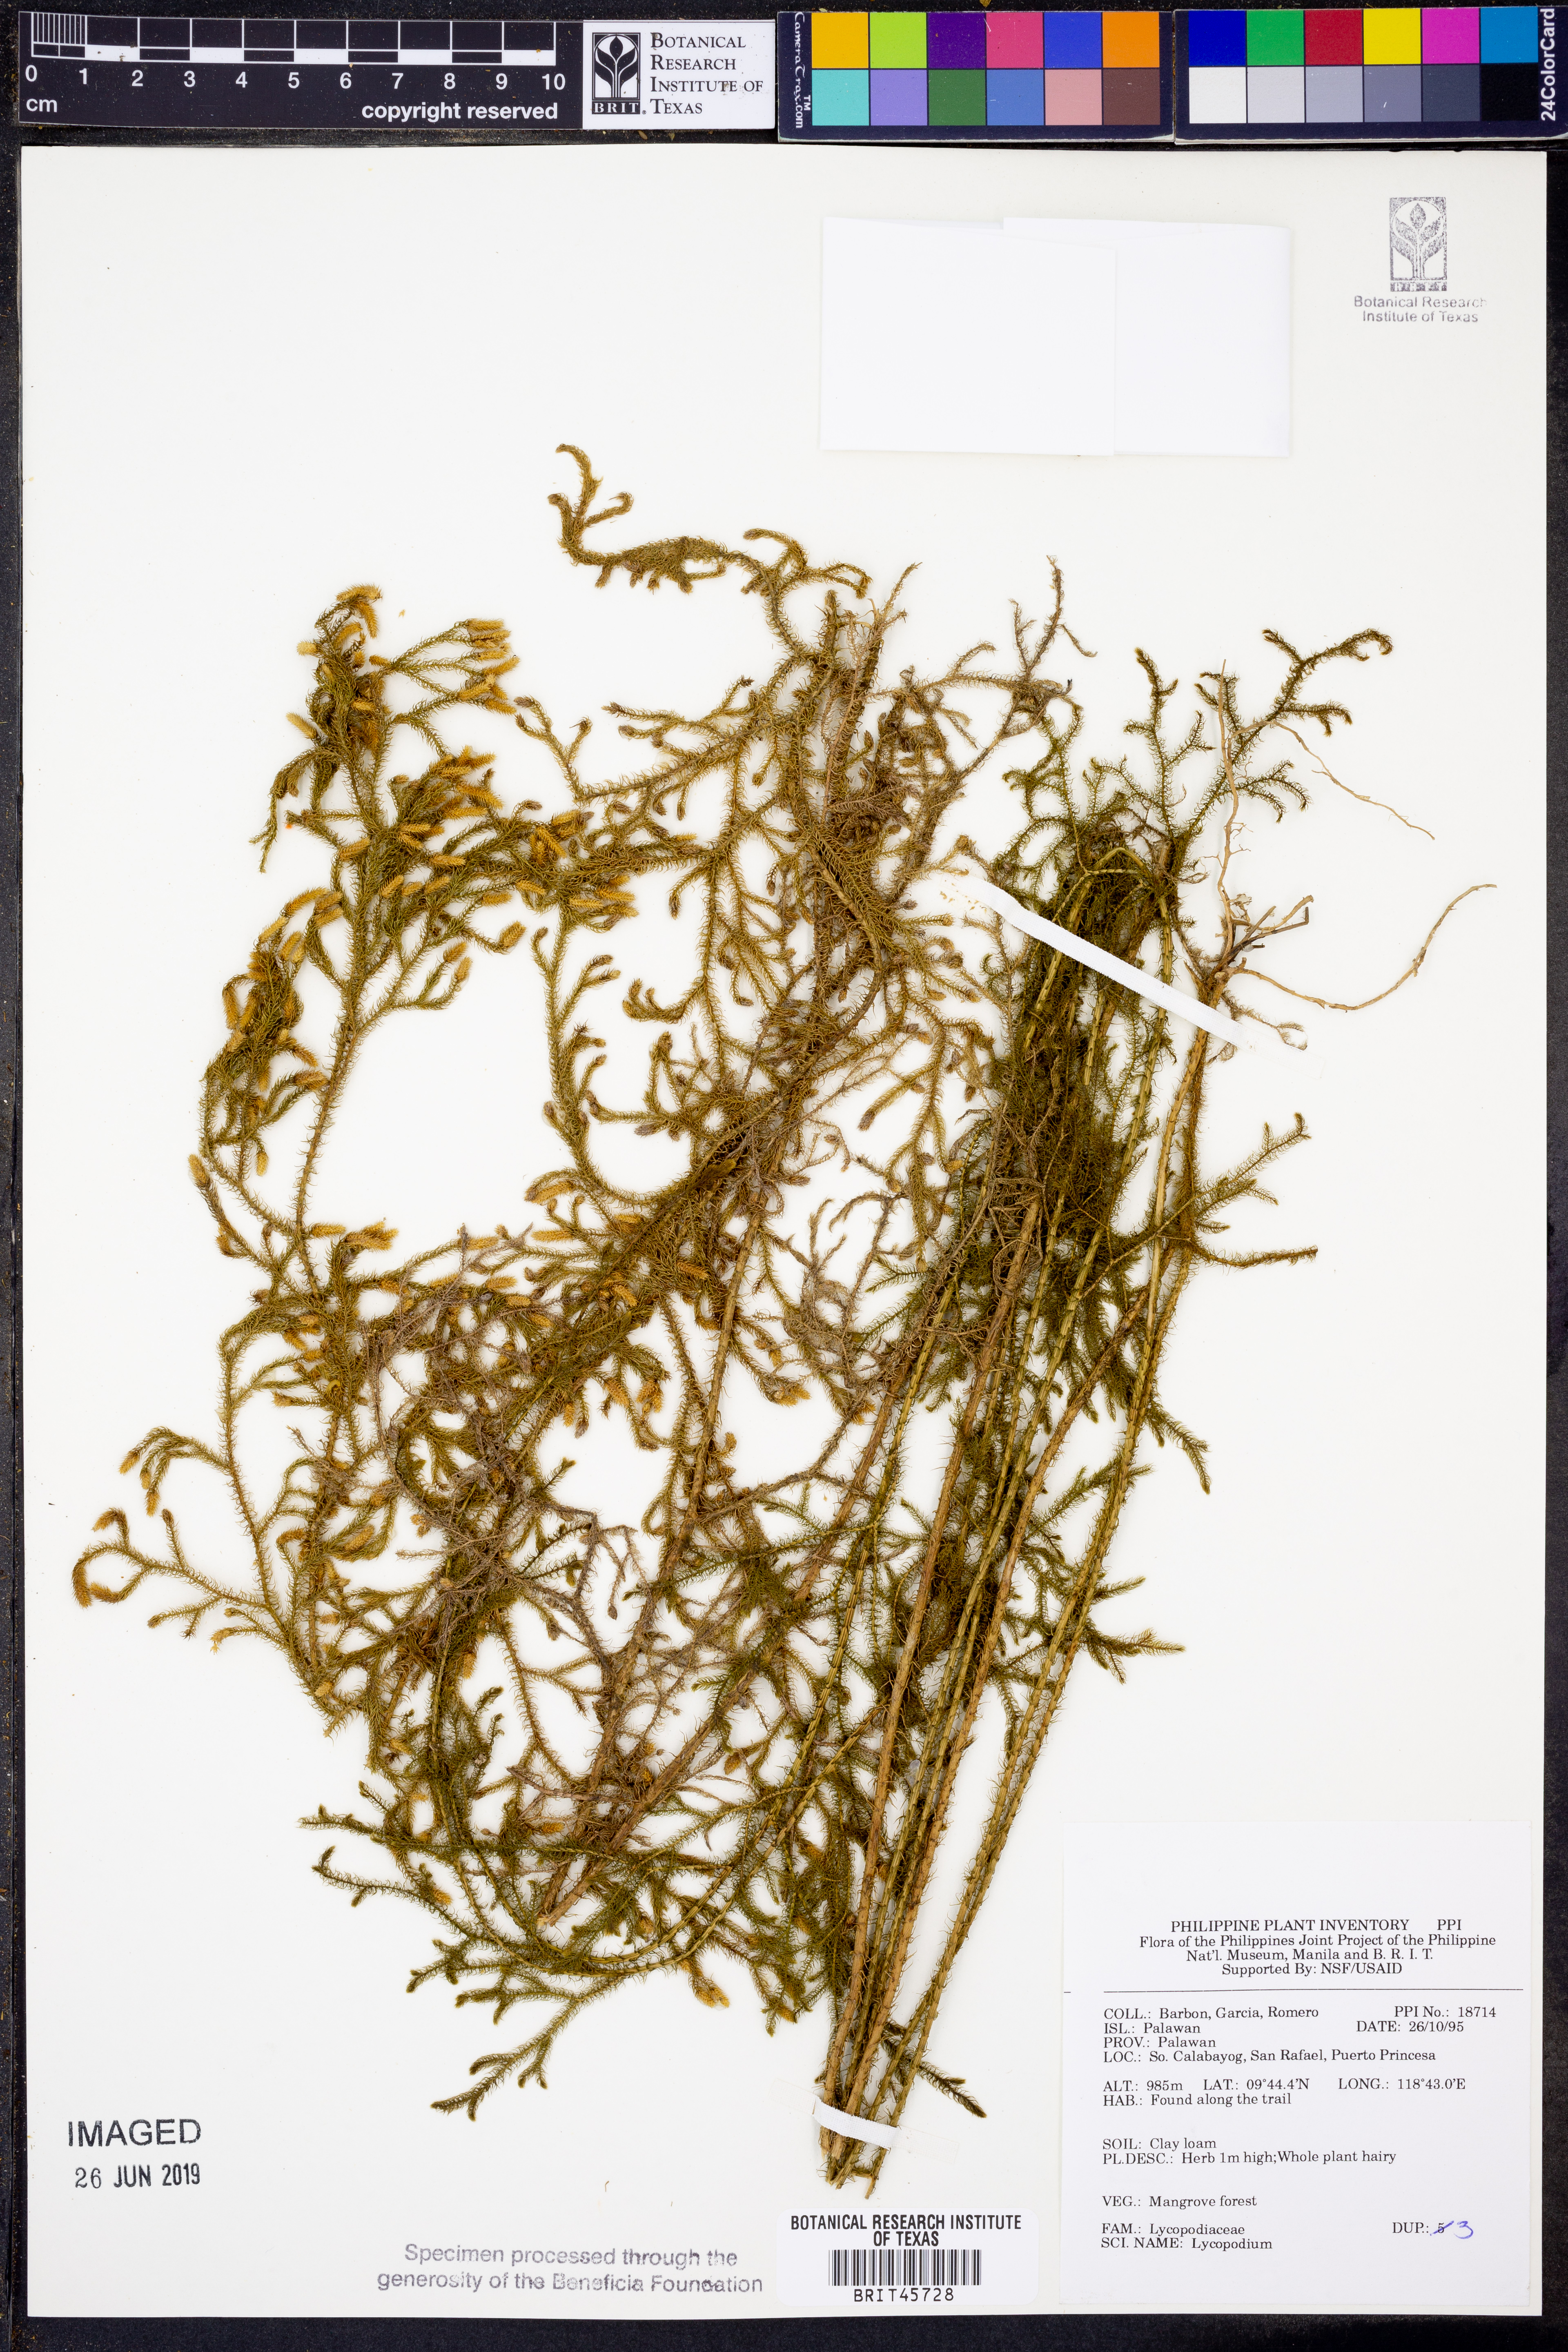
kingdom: Plantae
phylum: Tracheophyta
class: Lycopodiopsida
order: Lycopodiales
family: Lycopodiaceae
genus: Lycopodium
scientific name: Lycopodium
